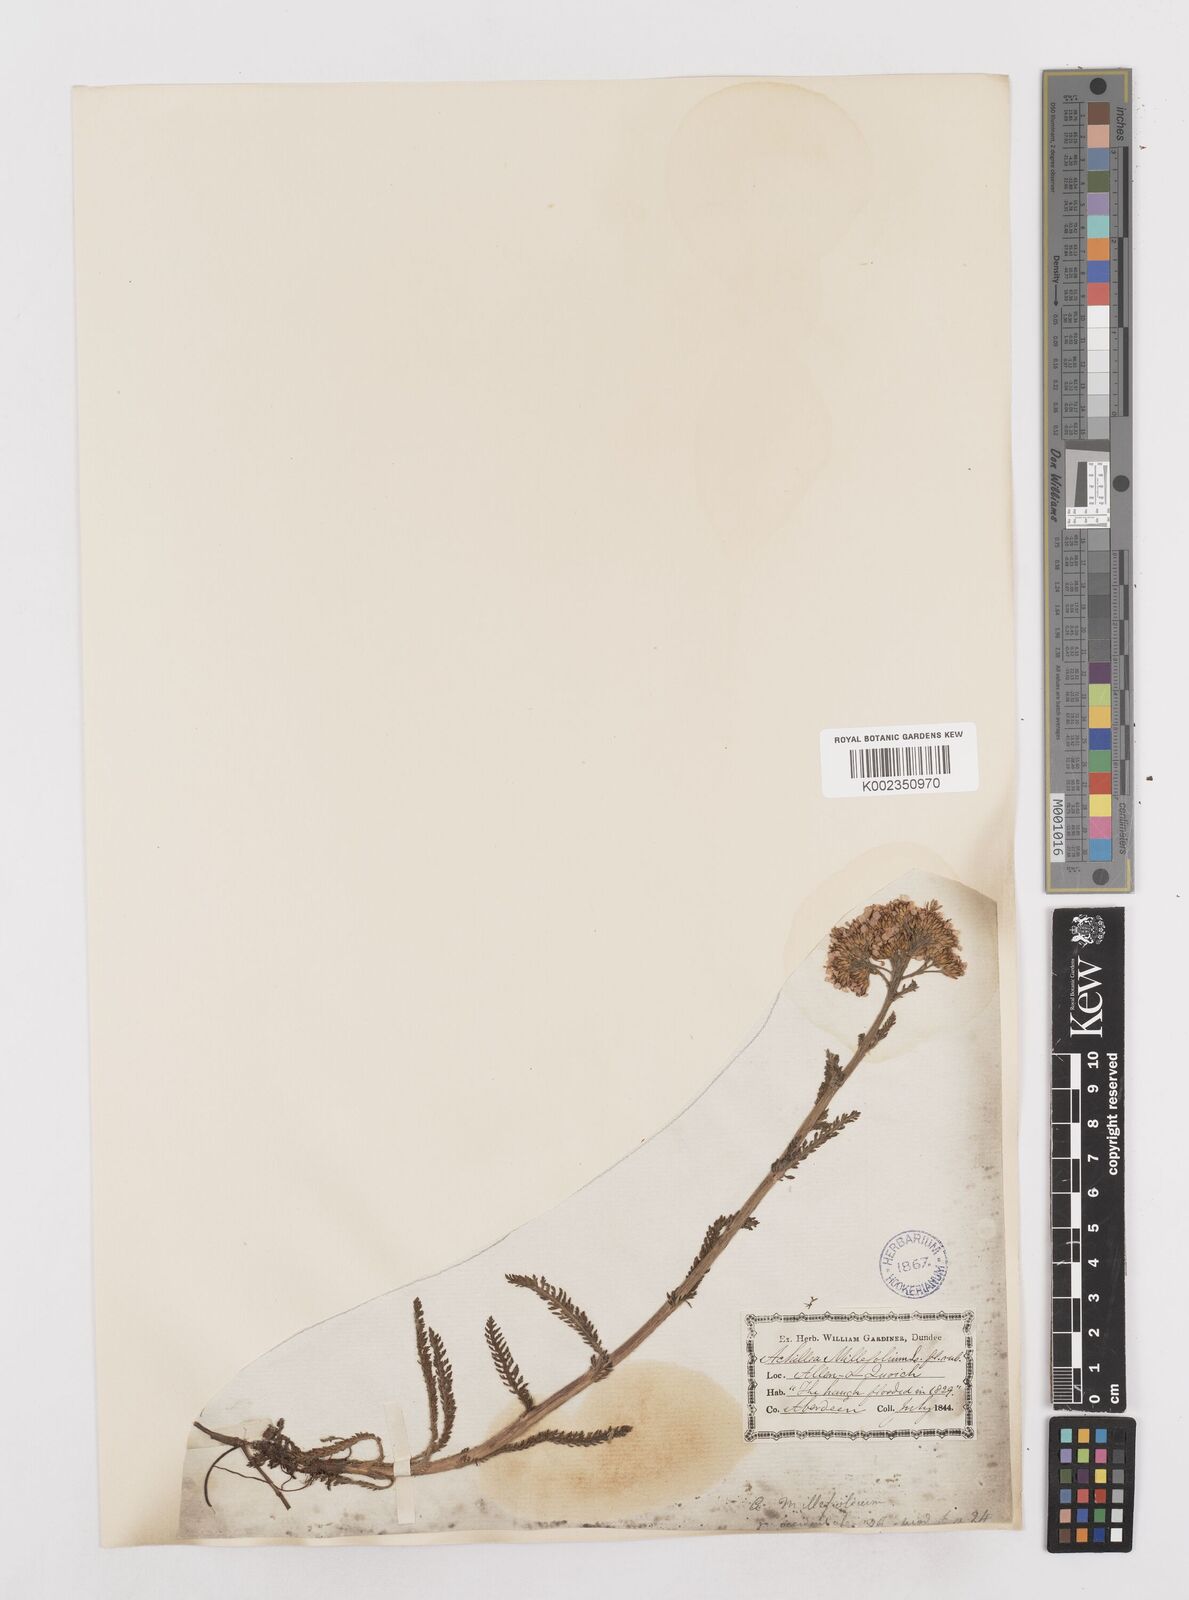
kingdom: Plantae
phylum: Tracheophyta
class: Magnoliopsida
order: Asterales
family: Asteraceae
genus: Achillea
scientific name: Achillea millefolium
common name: Yarrow
